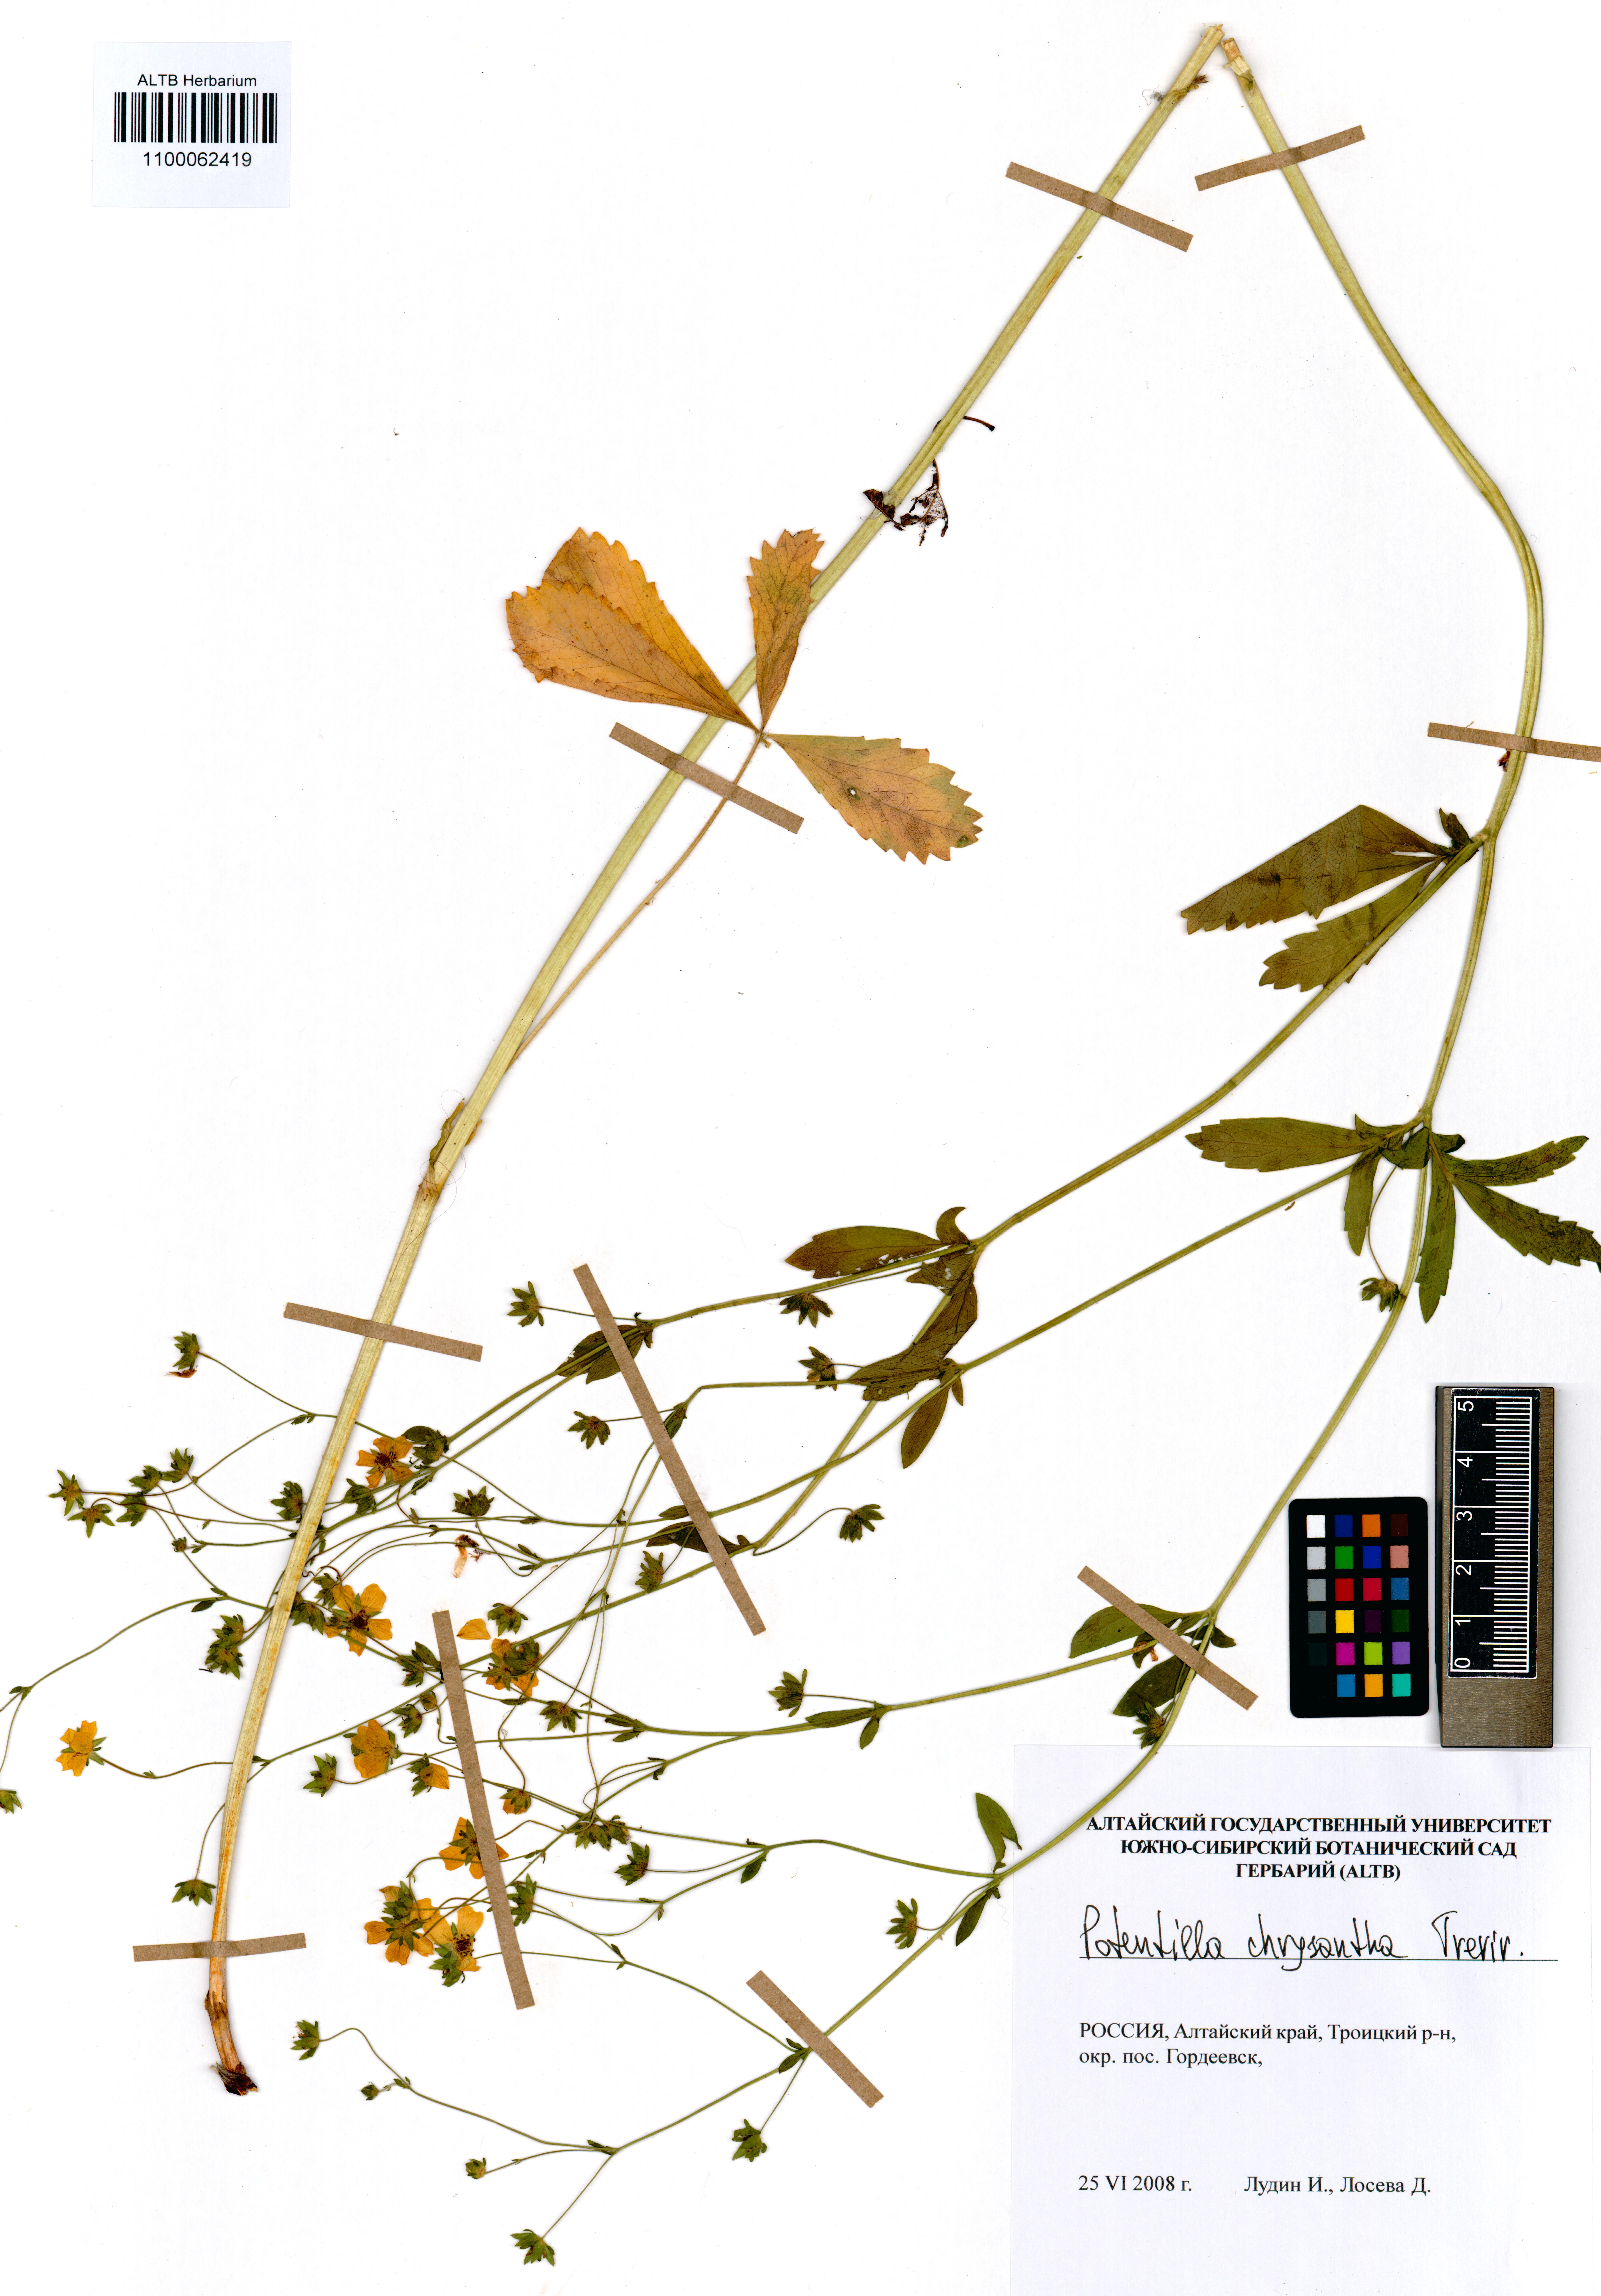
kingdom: Plantae
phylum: Tracheophyta
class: Magnoliopsida
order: Rosales
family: Rosaceae
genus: Potentilla
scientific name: Potentilla chrysantha
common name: Thuringian cinquefoil
